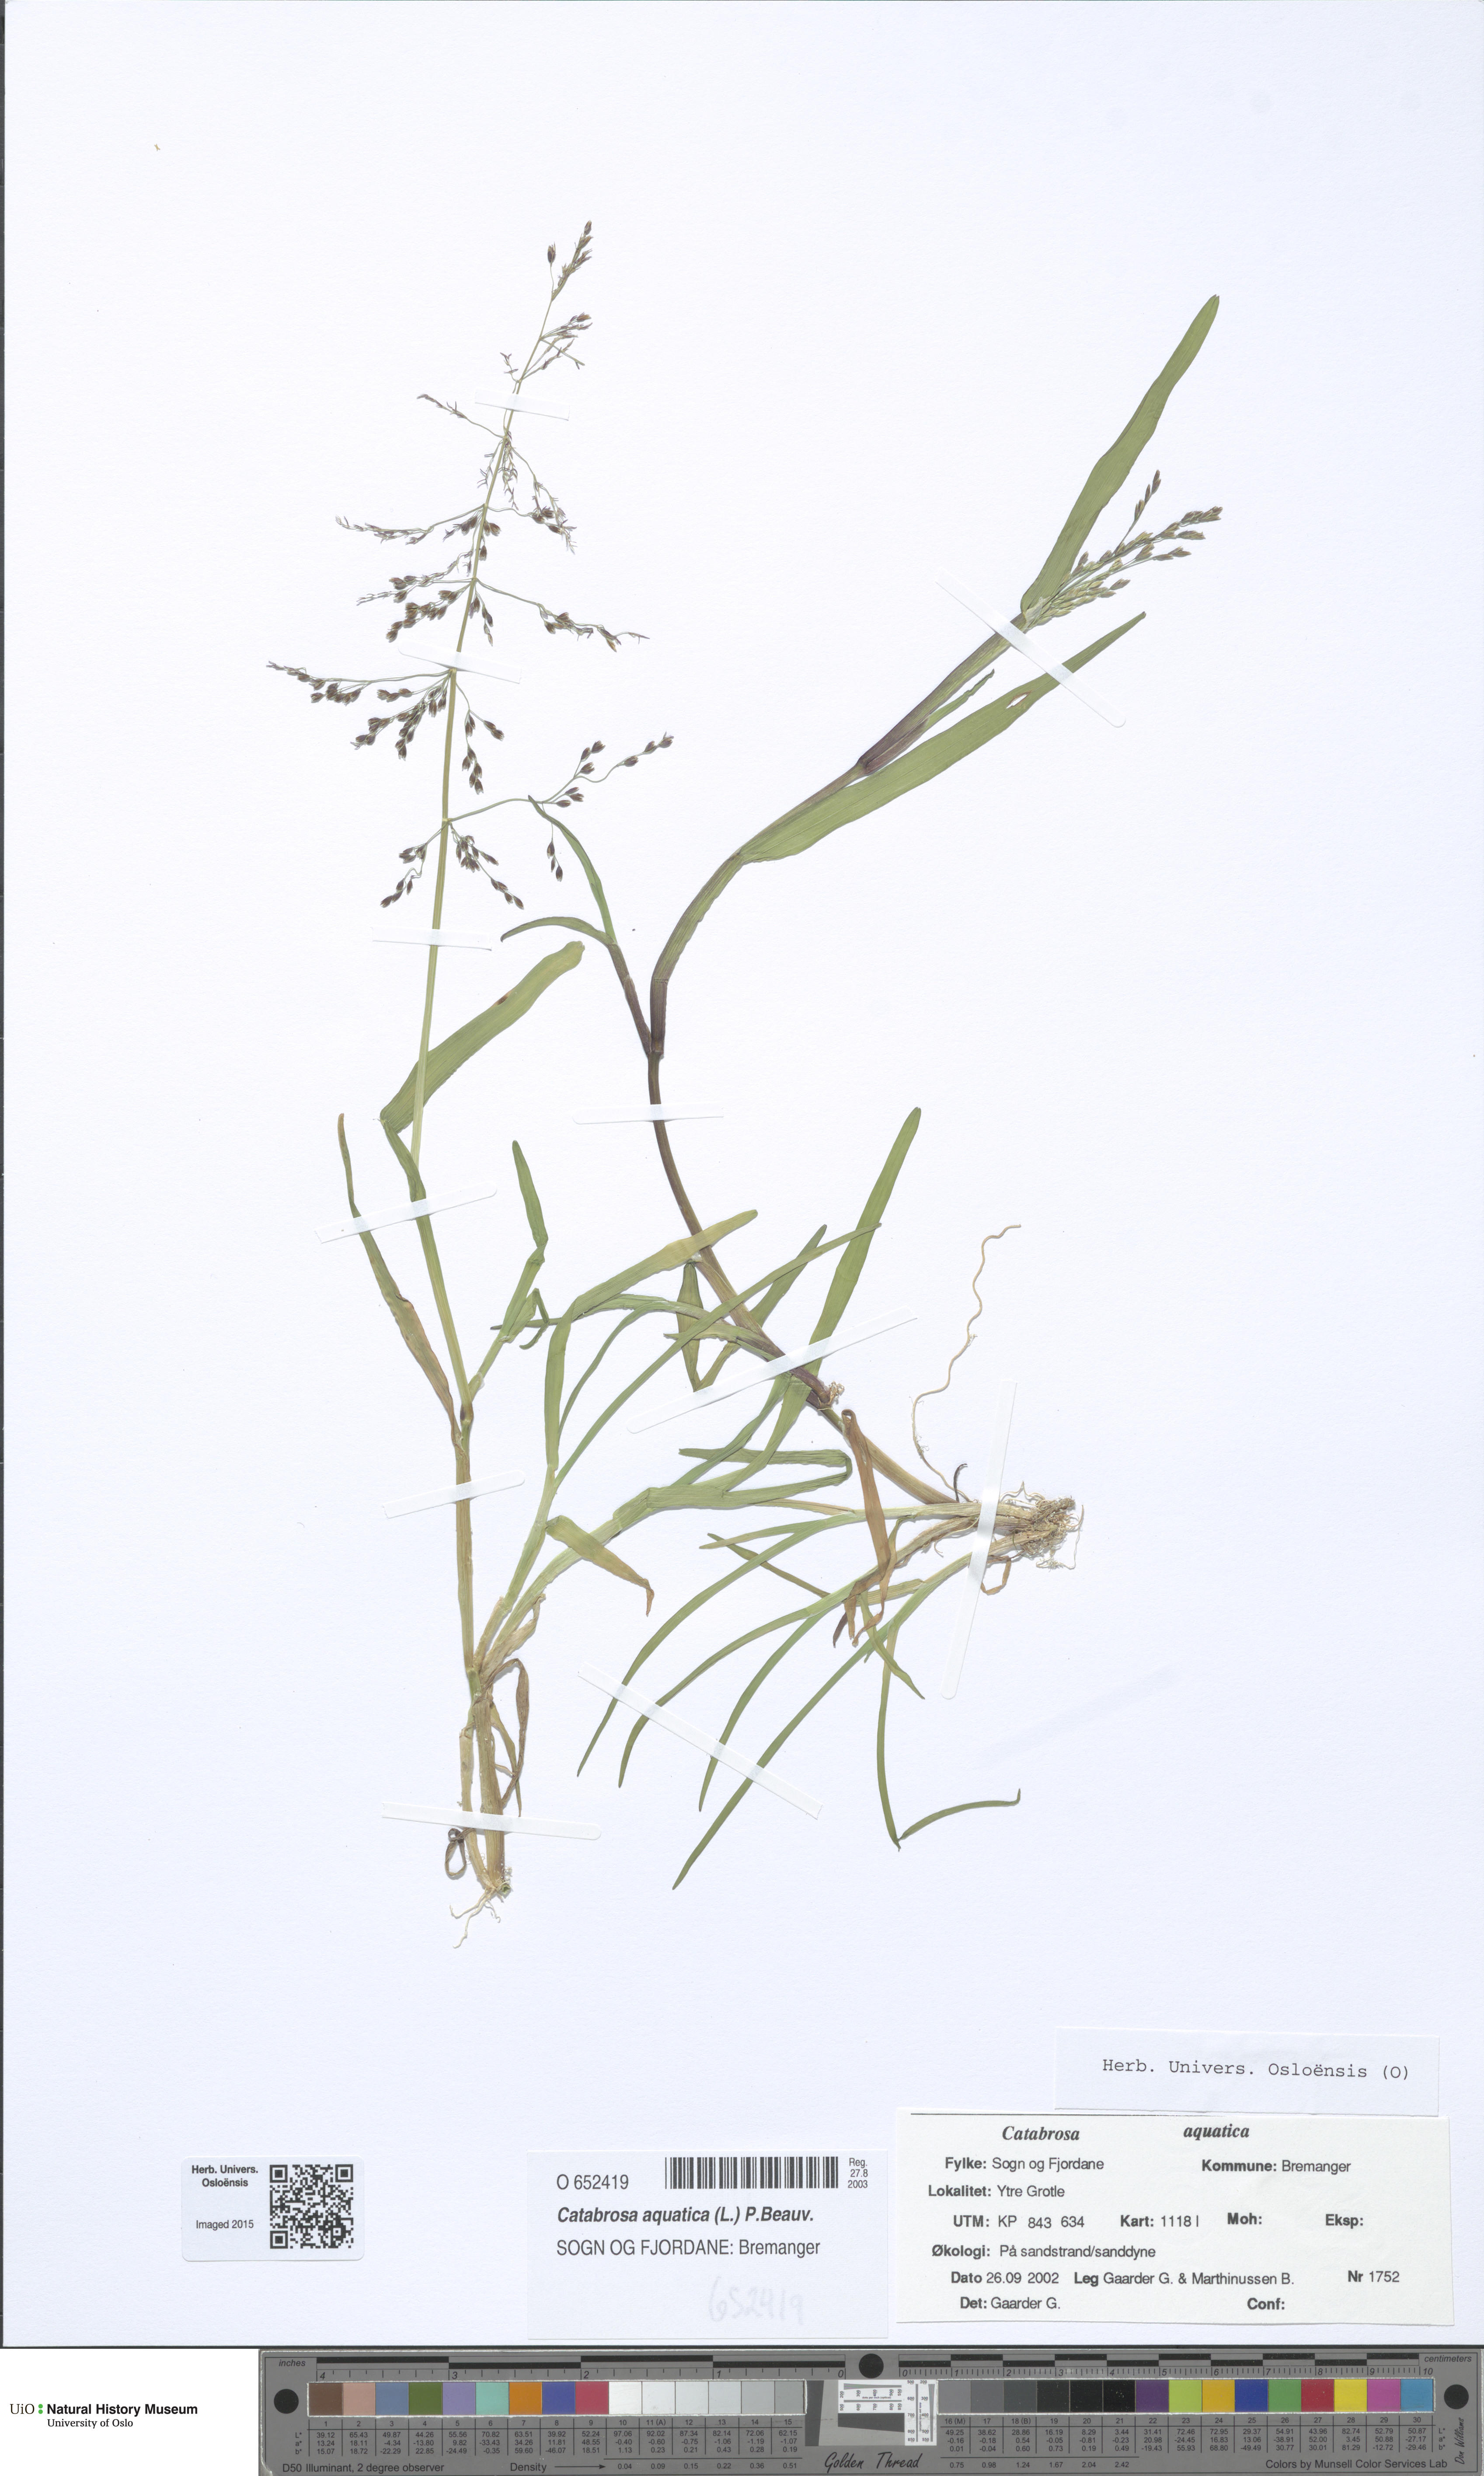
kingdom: Plantae
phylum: Tracheophyta
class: Liliopsida
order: Poales
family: Poaceae
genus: Catabrosa
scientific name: Catabrosa aquatica
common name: Whorl-grass
